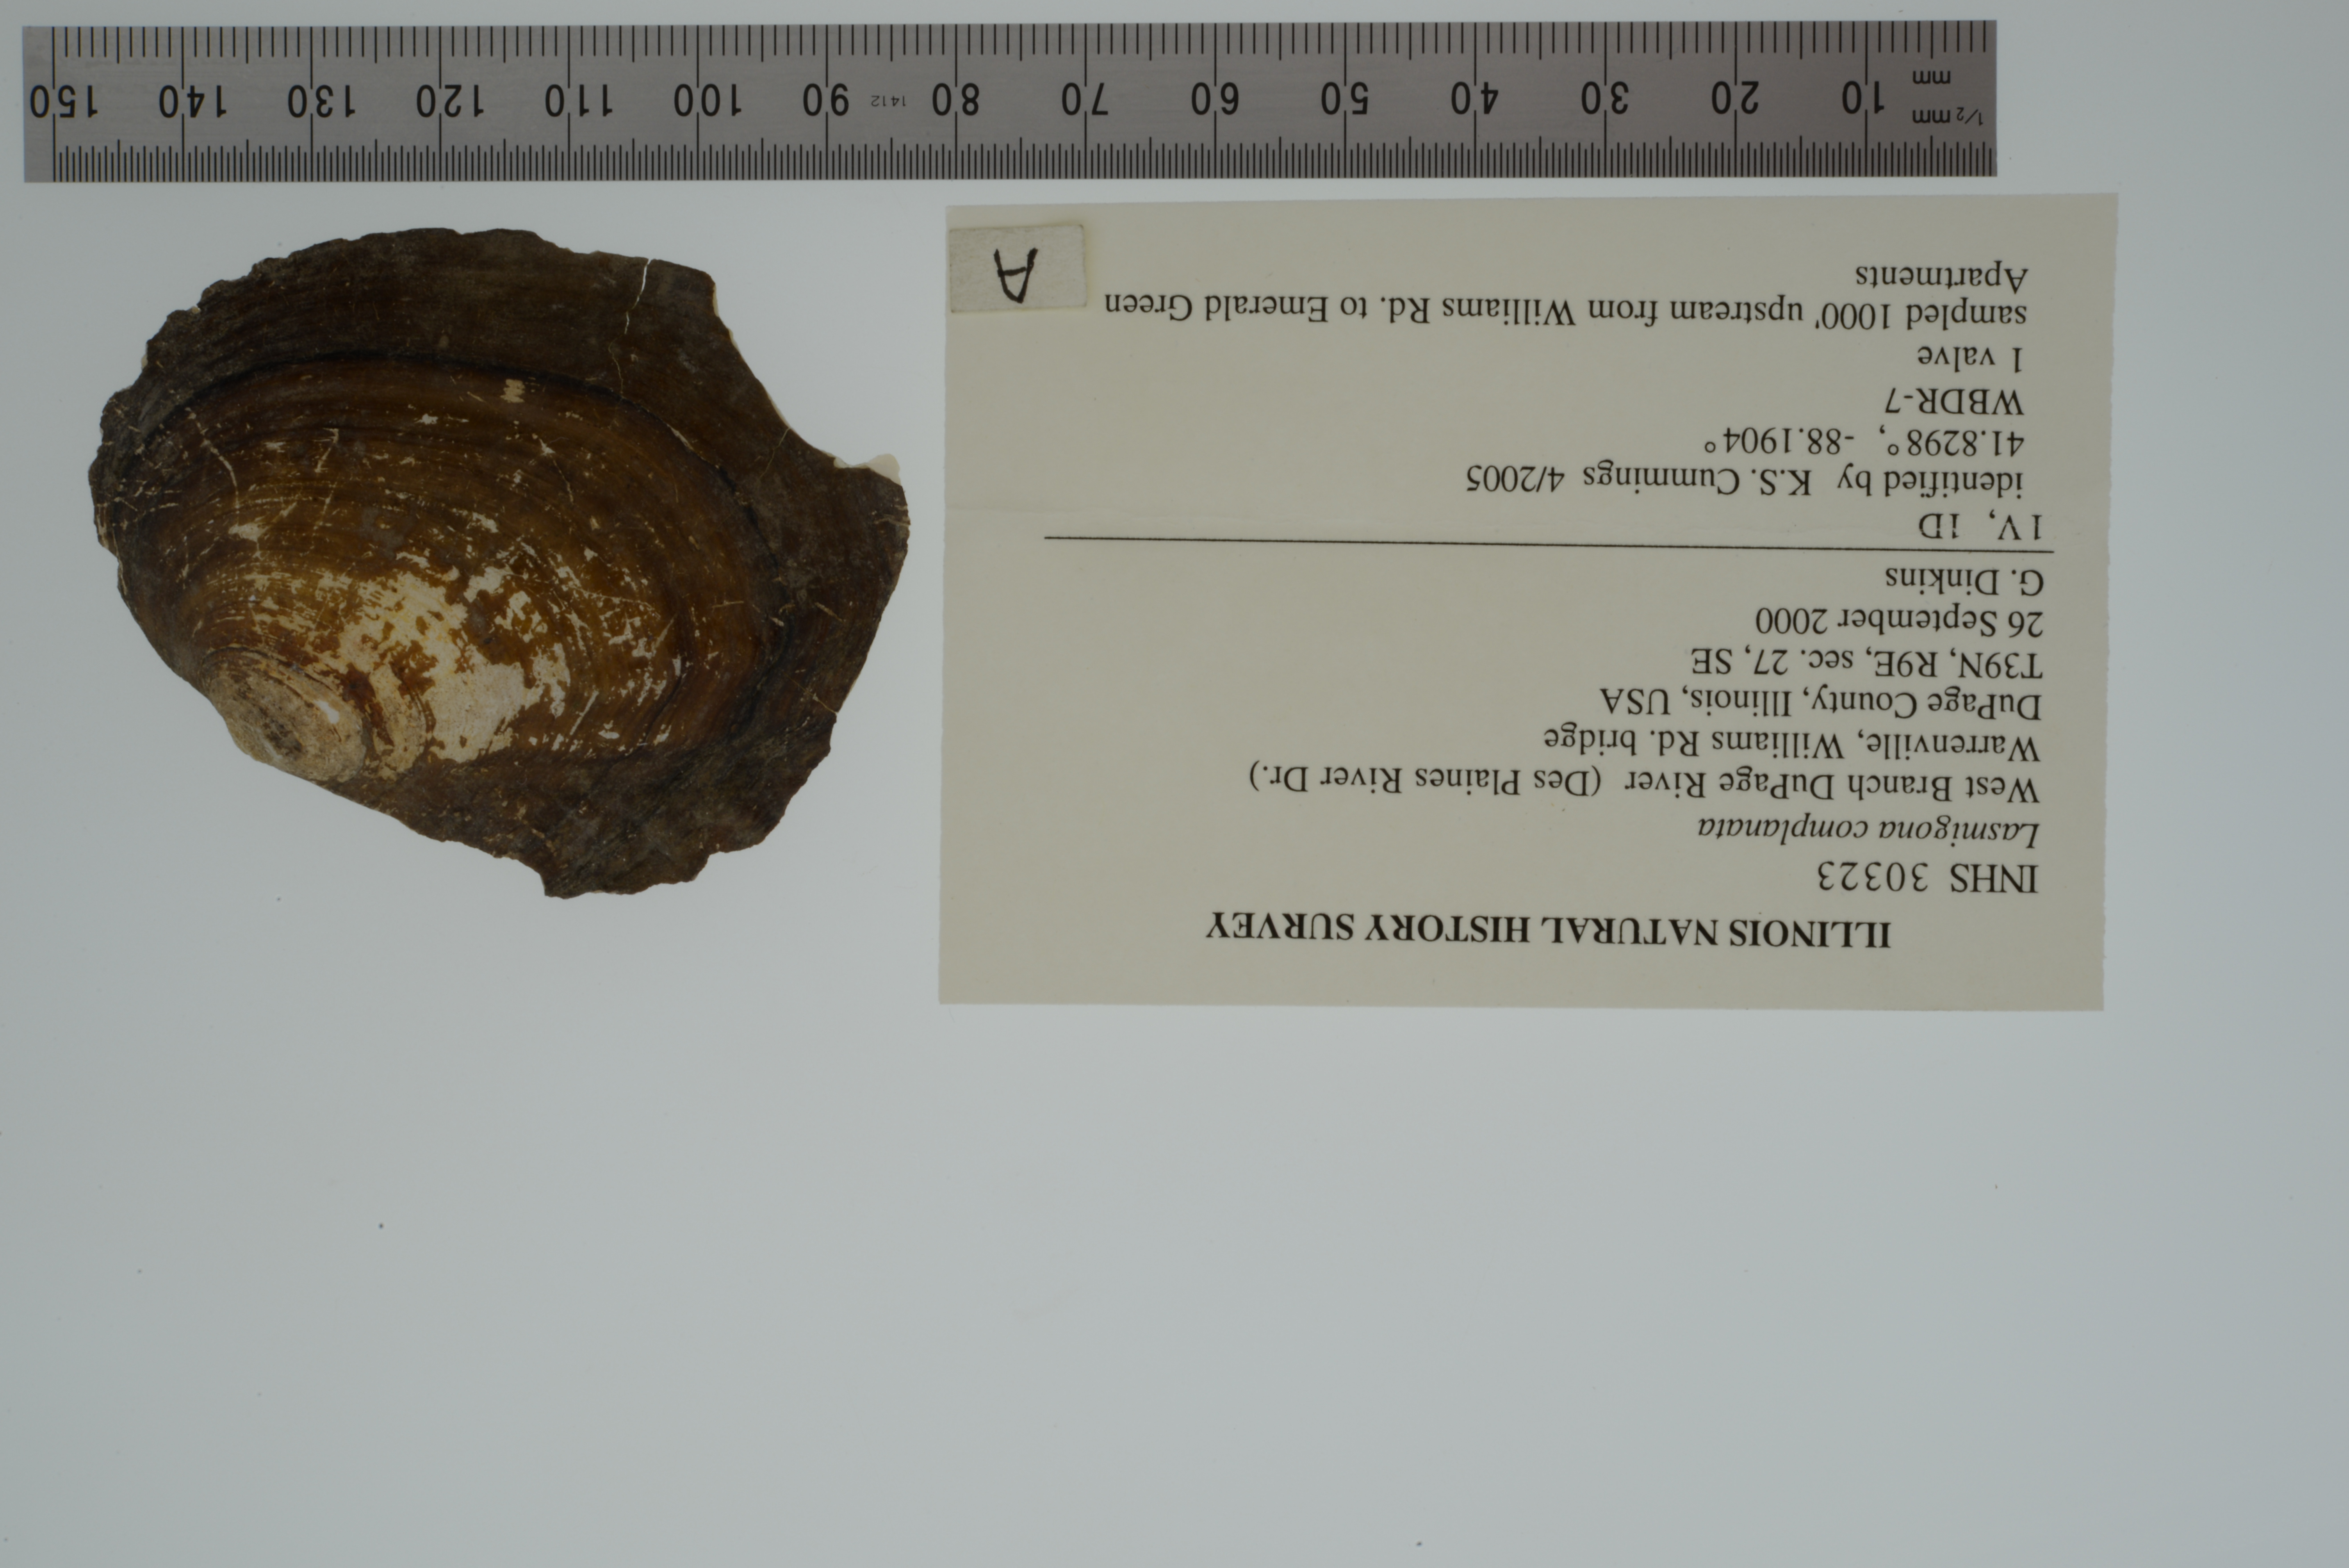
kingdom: Animalia
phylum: Mollusca
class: Bivalvia
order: Unionida
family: Unionidae
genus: Lasmigona
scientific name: Lasmigona complanata
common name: White heelsplitter
